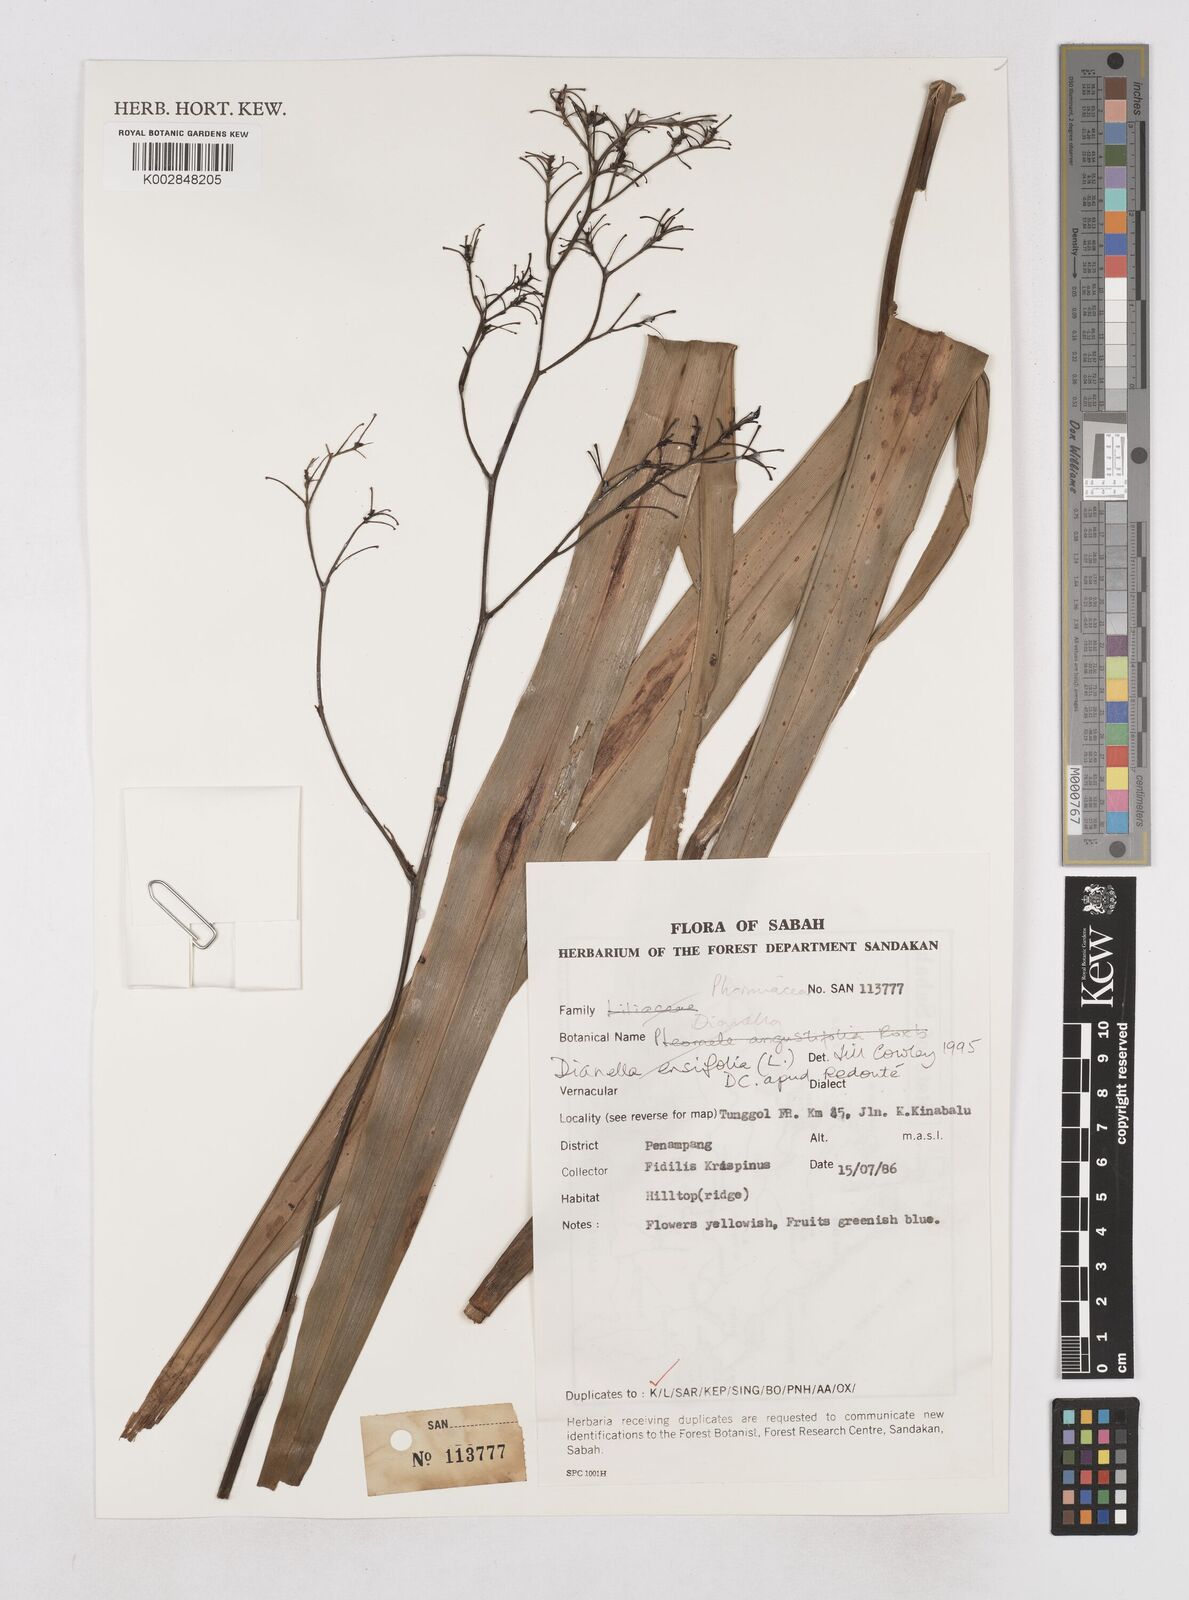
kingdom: Plantae
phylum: Tracheophyta
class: Liliopsida
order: Asparagales
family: Asphodelaceae
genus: Dianella
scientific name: Dianella ensifolia
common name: New zealand lilyplant
